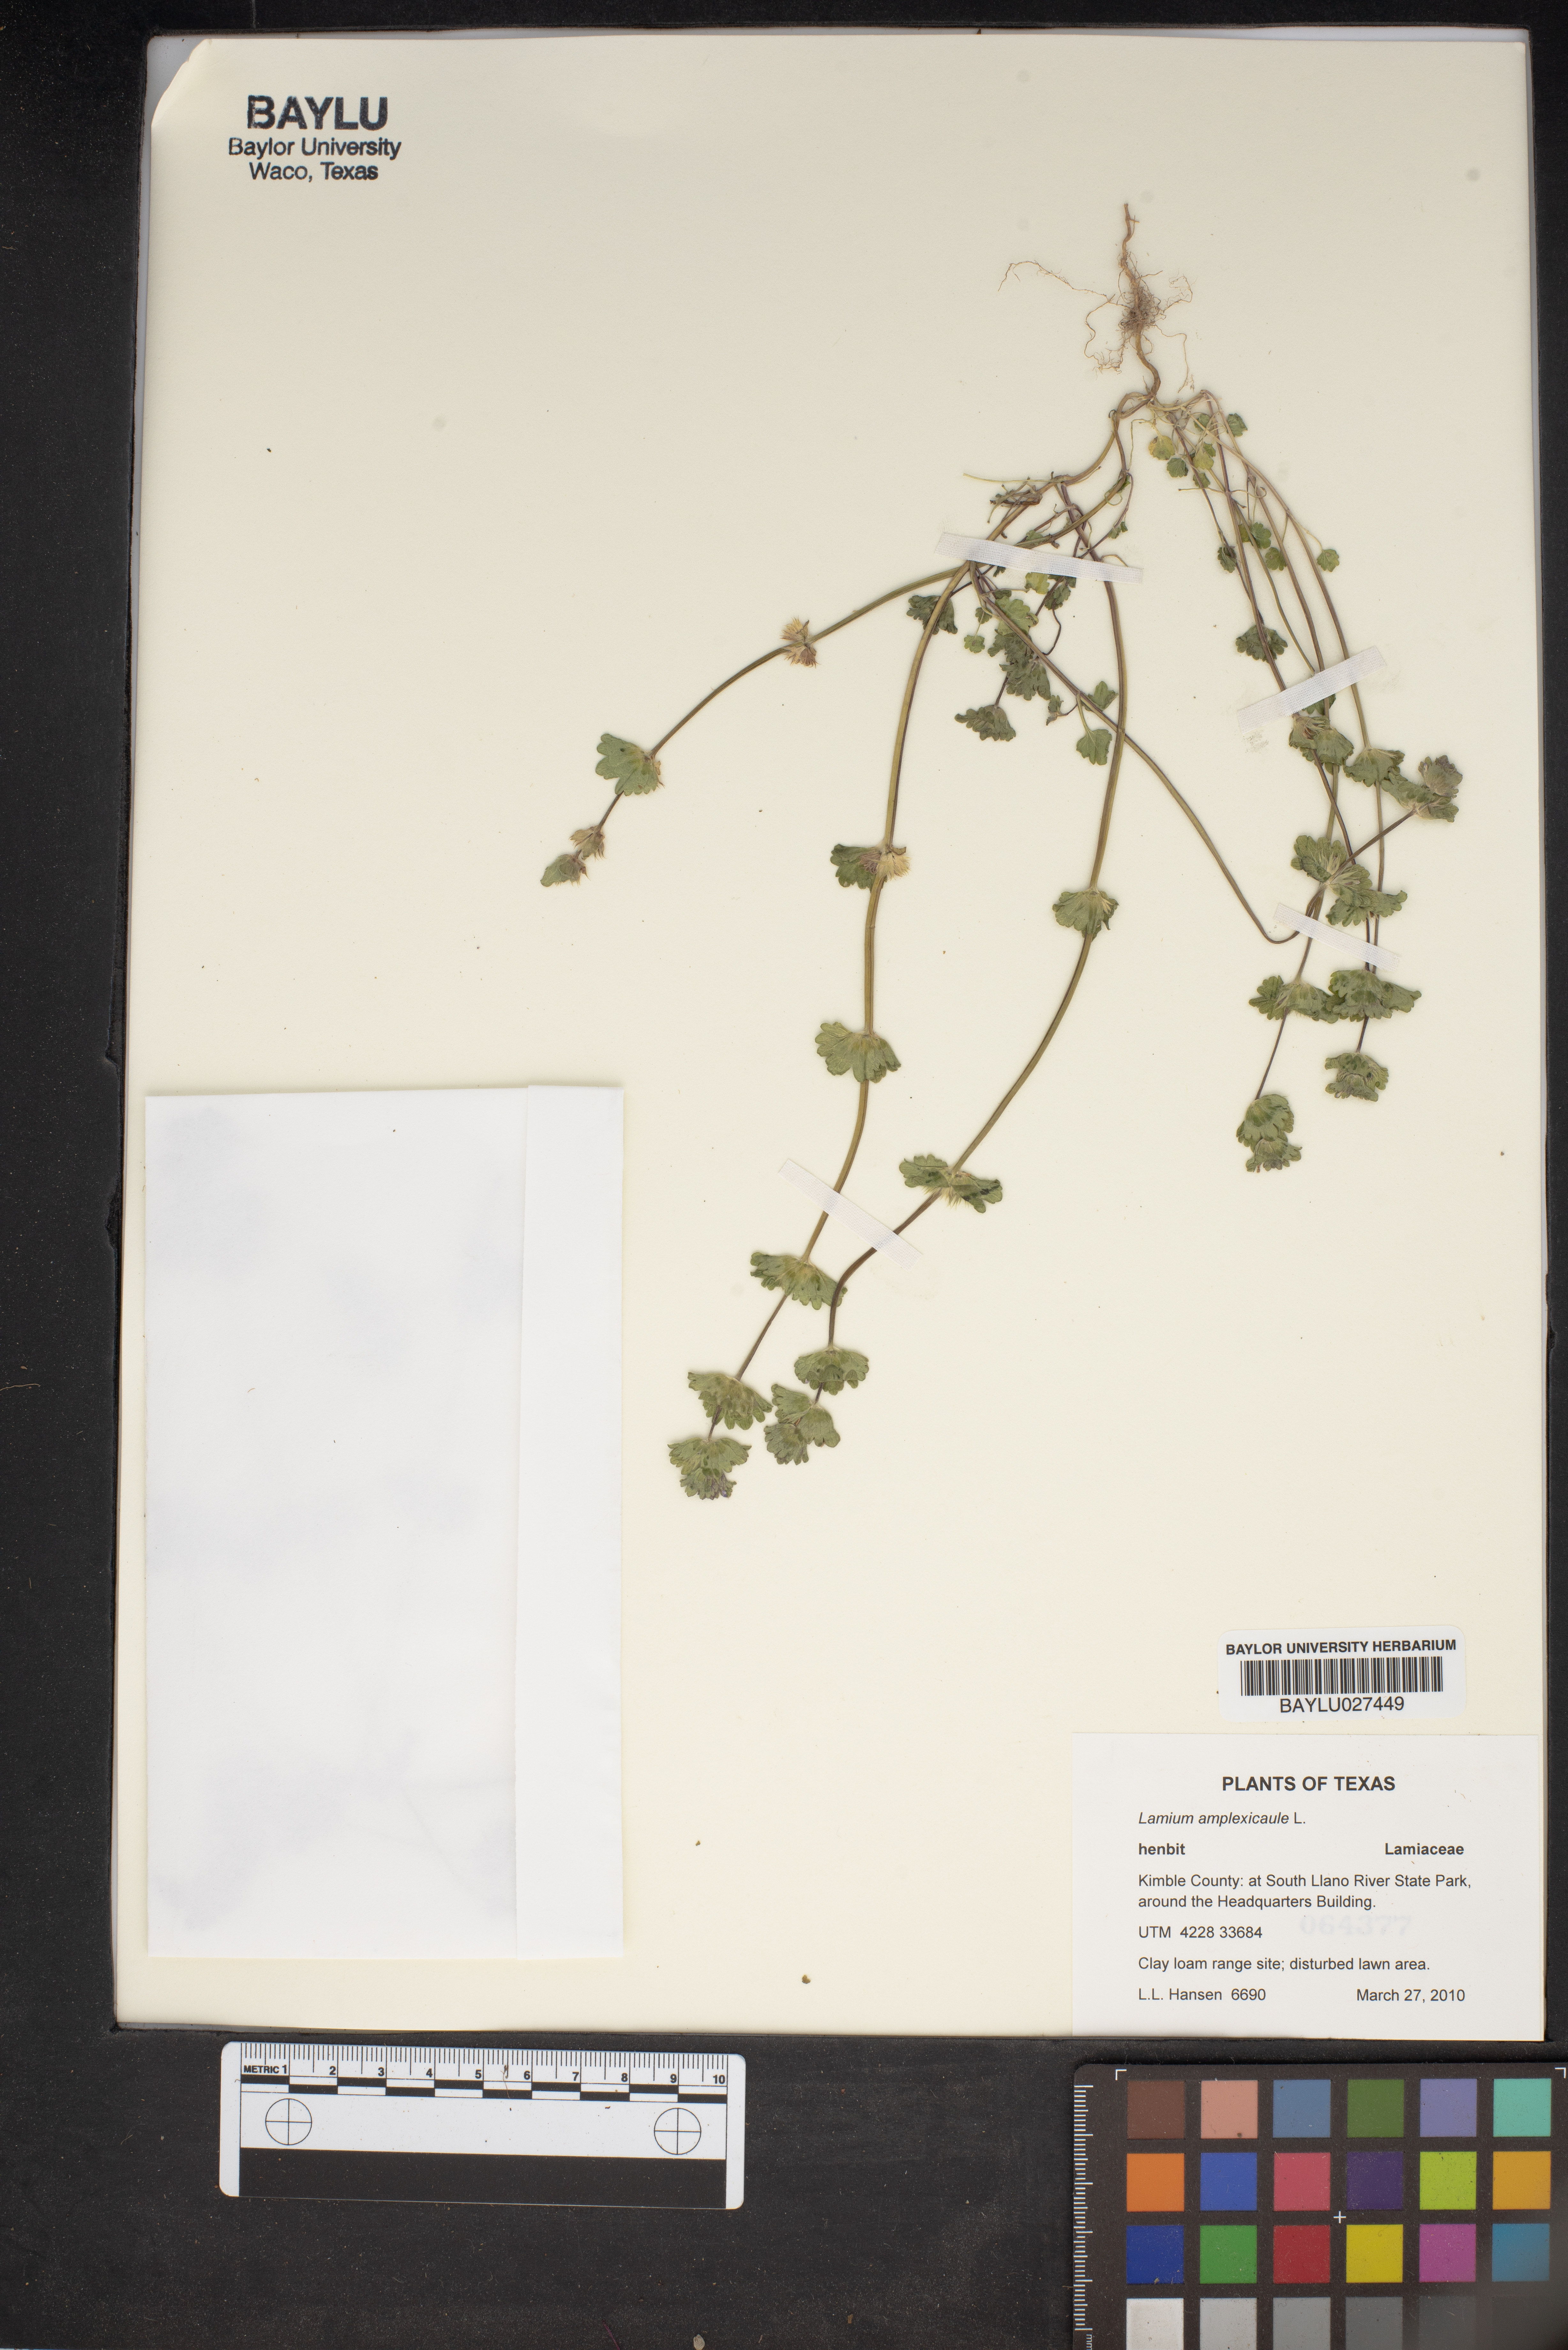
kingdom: Plantae
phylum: Tracheophyta
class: Magnoliopsida
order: Lamiales
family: Lamiaceae
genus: Lamium
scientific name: Lamium amplexicaule
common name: Henbit dead-nettle
